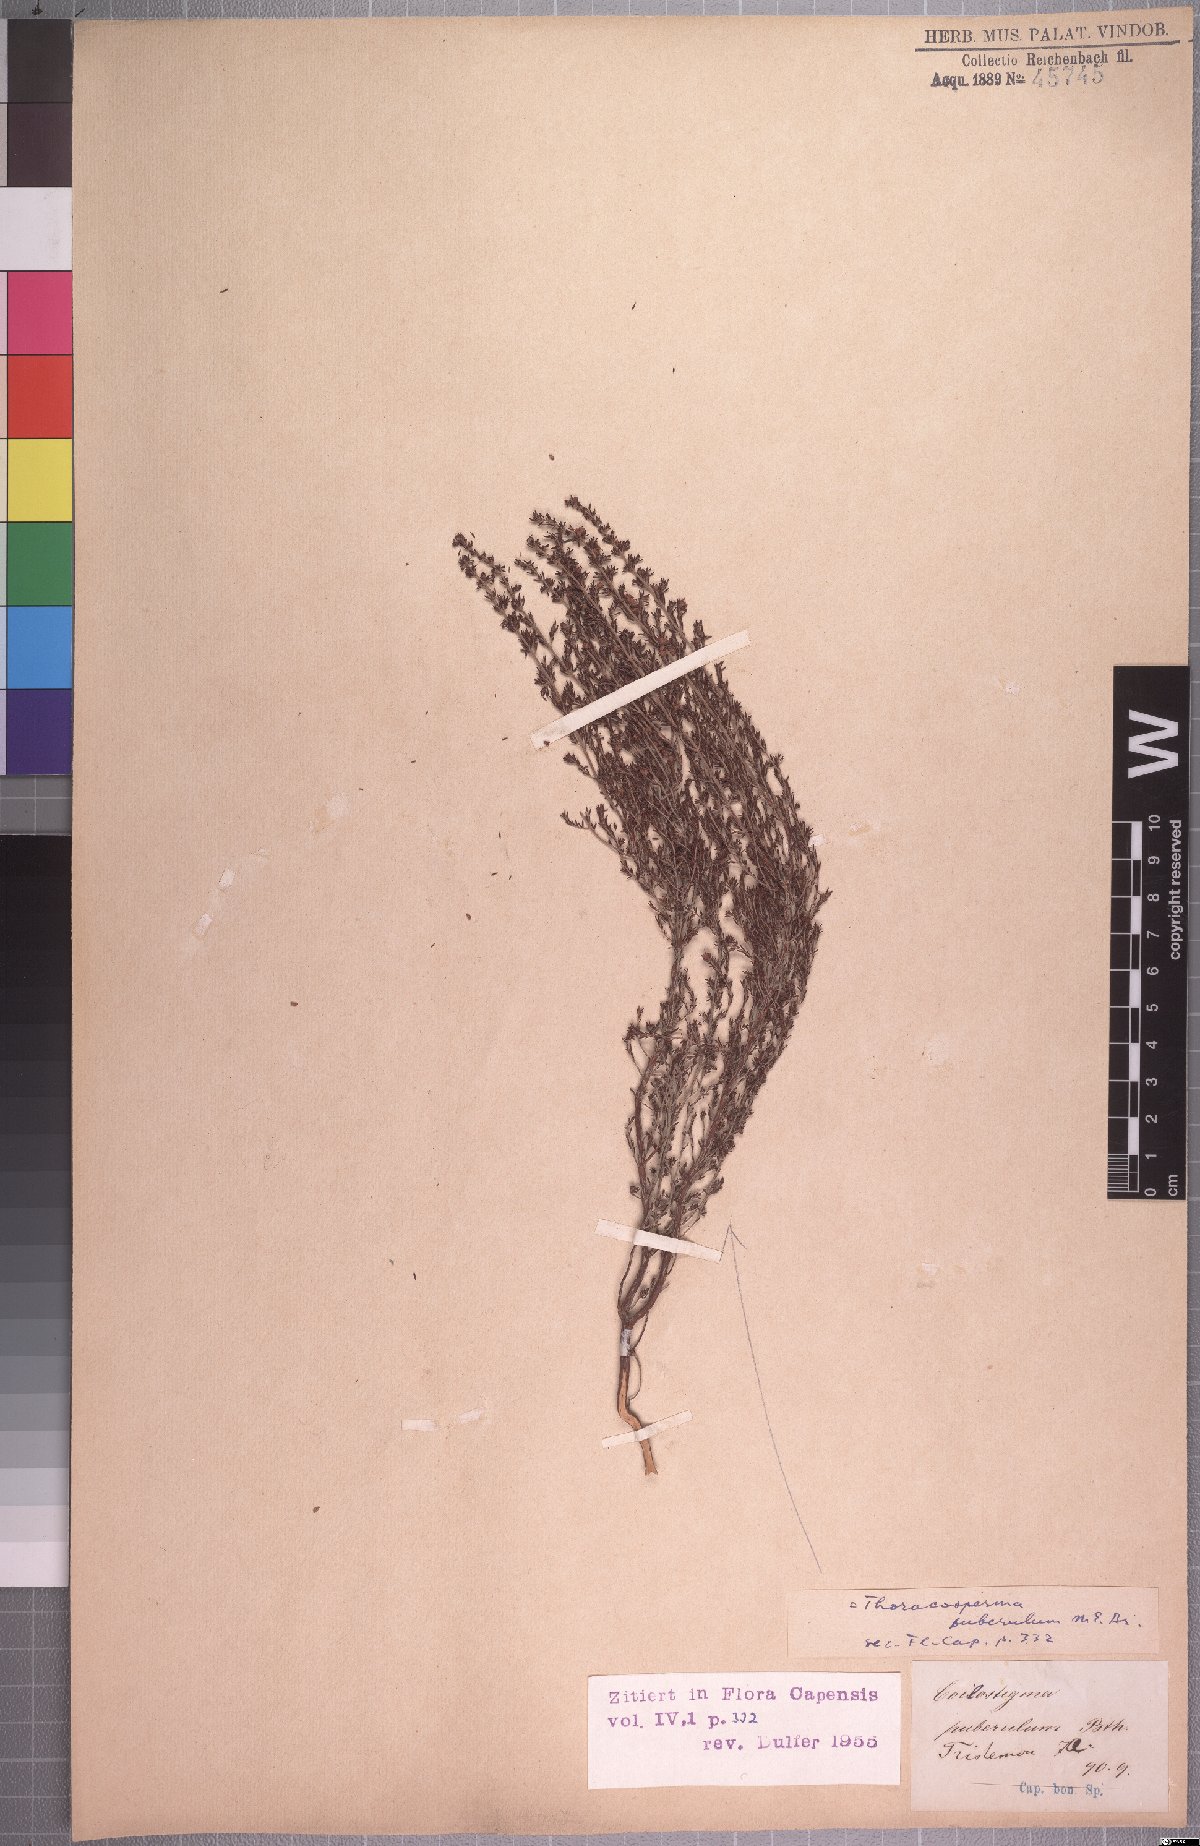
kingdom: Plantae
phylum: Tracheophyta
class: Magnoliopsida
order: Ericales
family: Ericaceae
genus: Erica
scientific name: Erica puberuliflora
